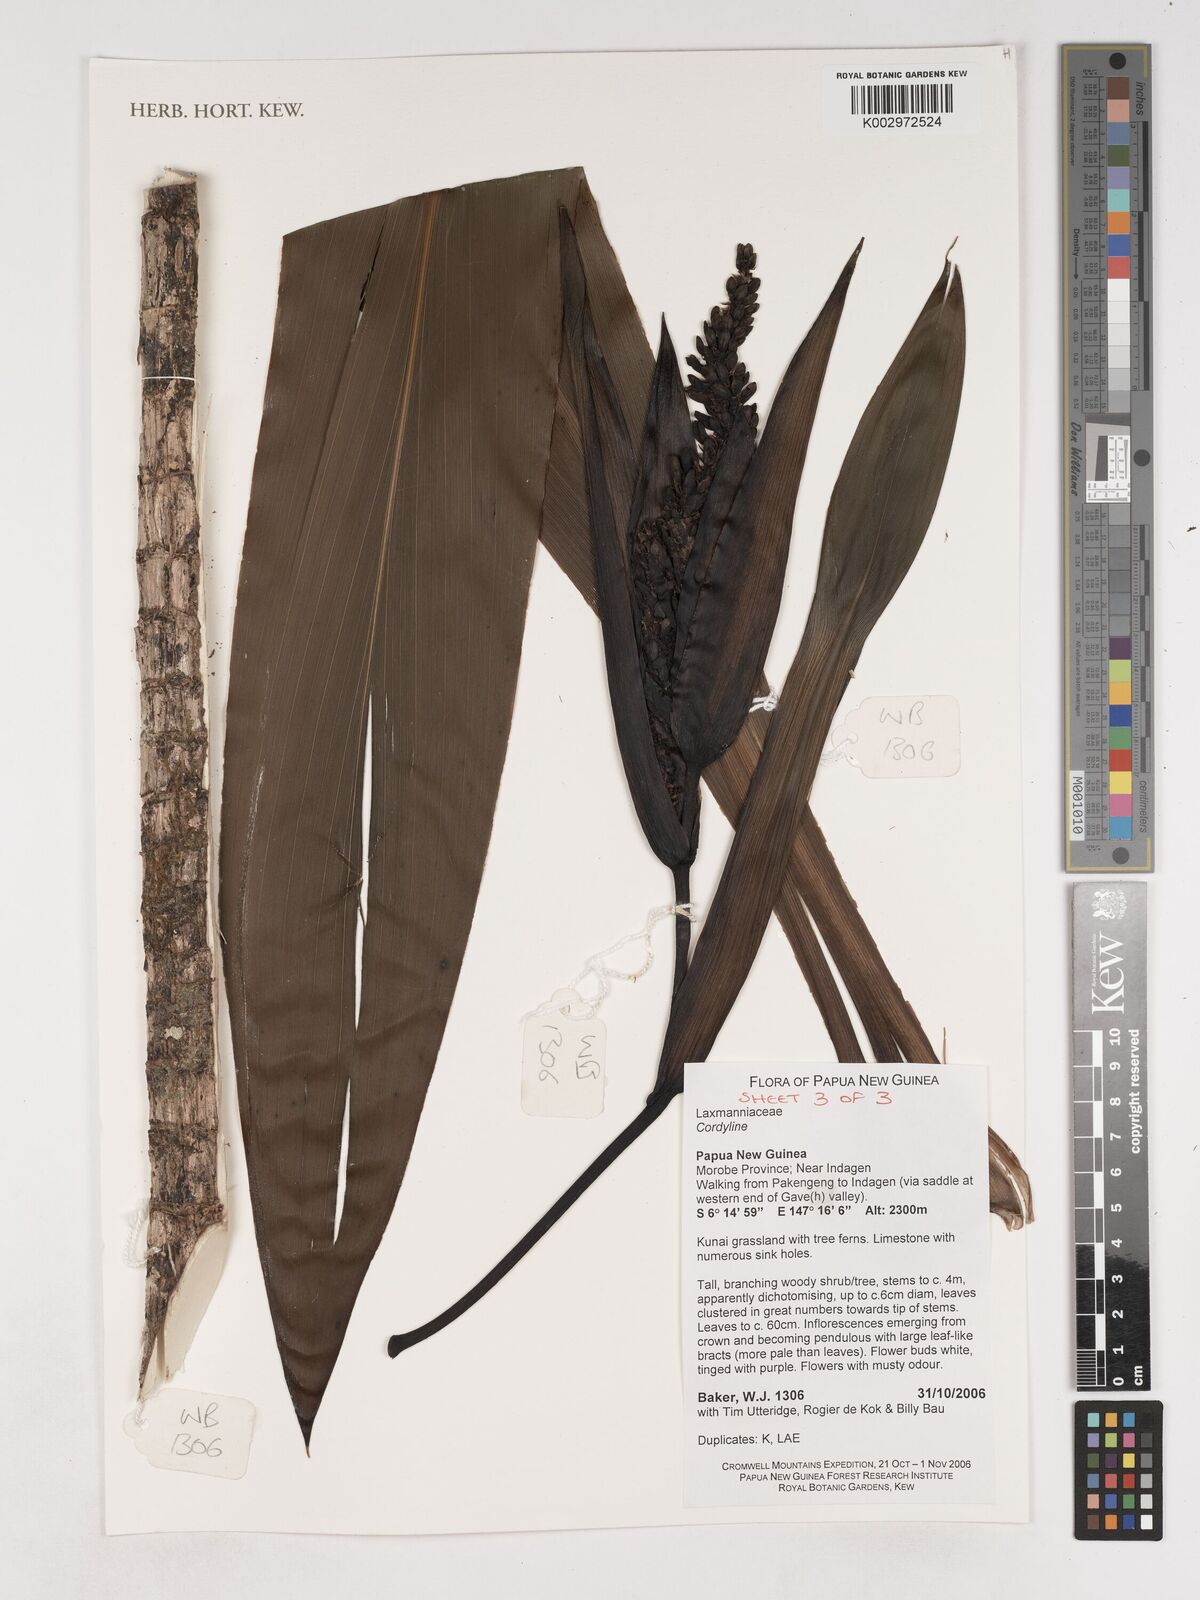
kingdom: Plantae
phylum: Tracheophyta
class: Liliopsida
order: Asparagales
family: Asparagaceae
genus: Cordyline
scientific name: Cordyline
